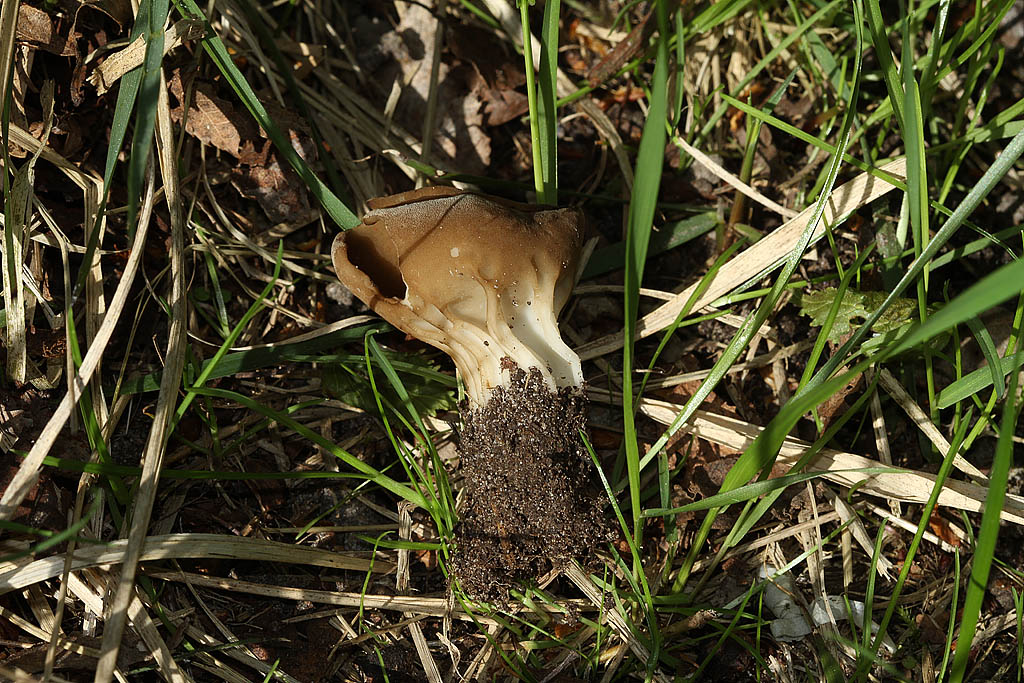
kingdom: Fungi
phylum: Ascomycota
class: Pezizomycetes
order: Pezizales
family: Helvellaceae
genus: Helvella
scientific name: Helvella acetabulum
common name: pokal-foldhat
